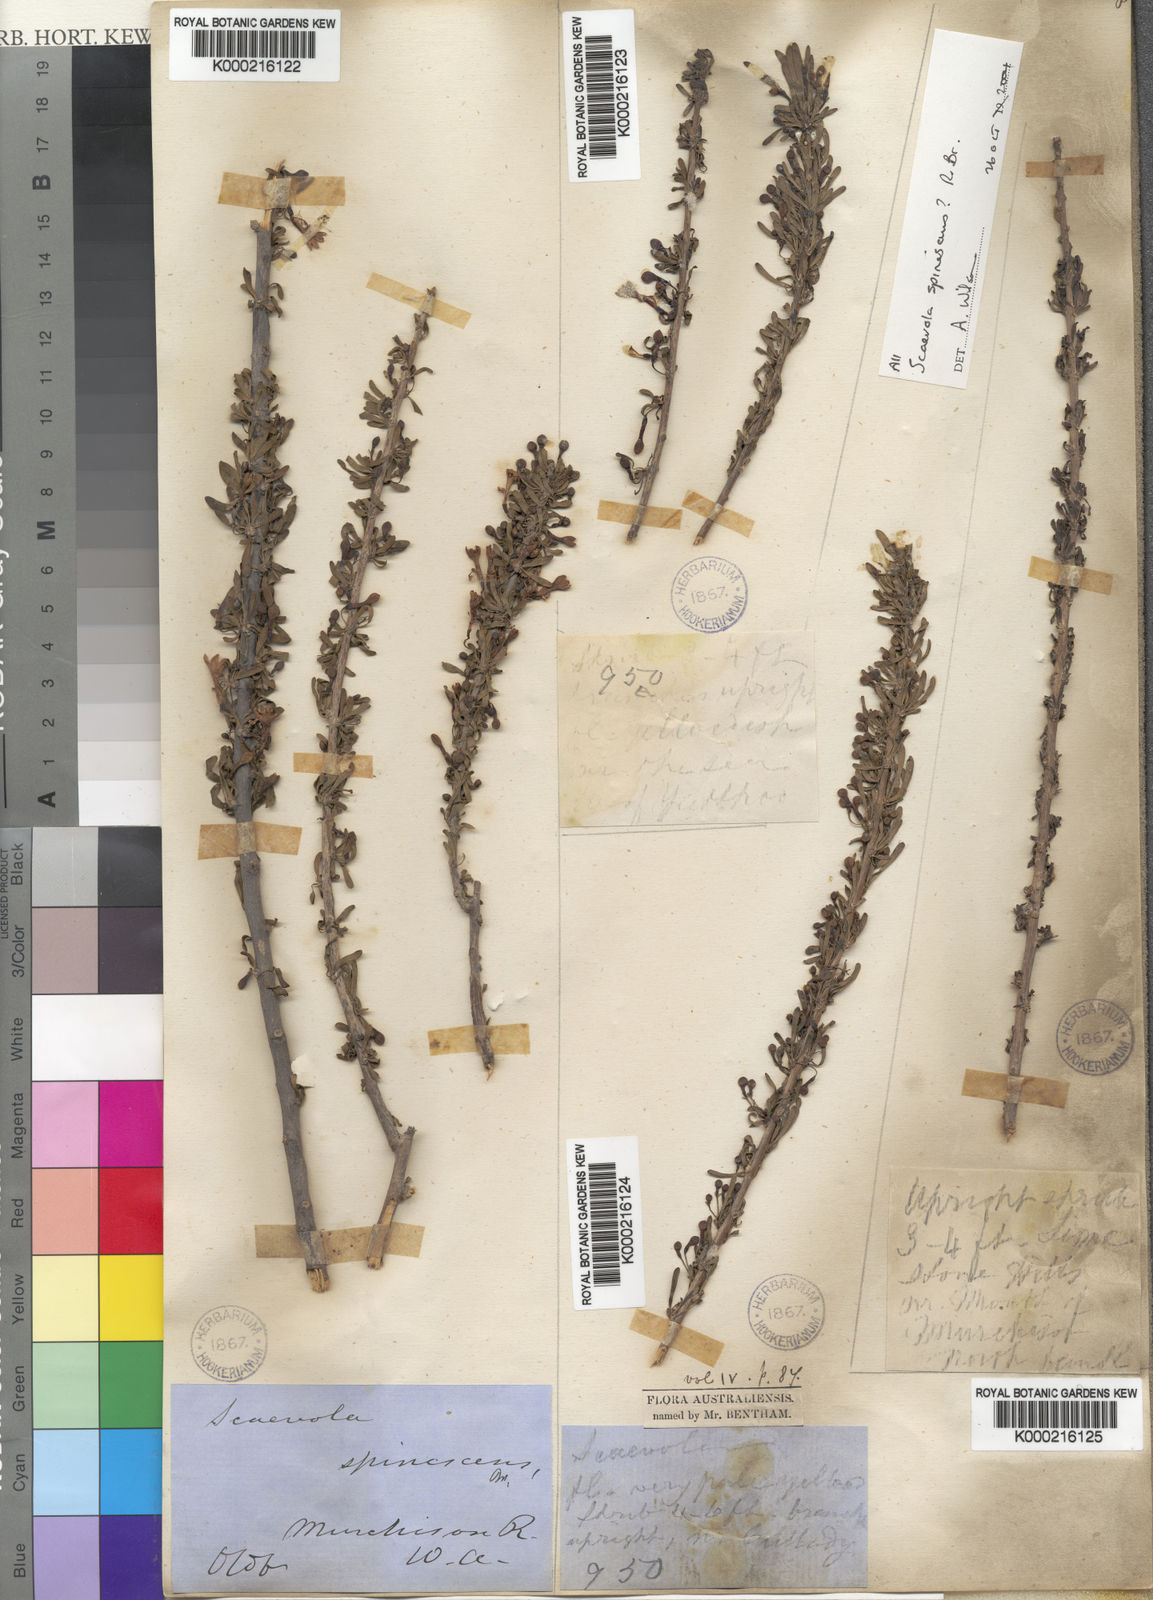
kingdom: Plantae
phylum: Tracheophyta
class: Magnoliopsida
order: Asterales
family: Goodeniaceae
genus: Scaevola
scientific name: Scaevola spinescens
